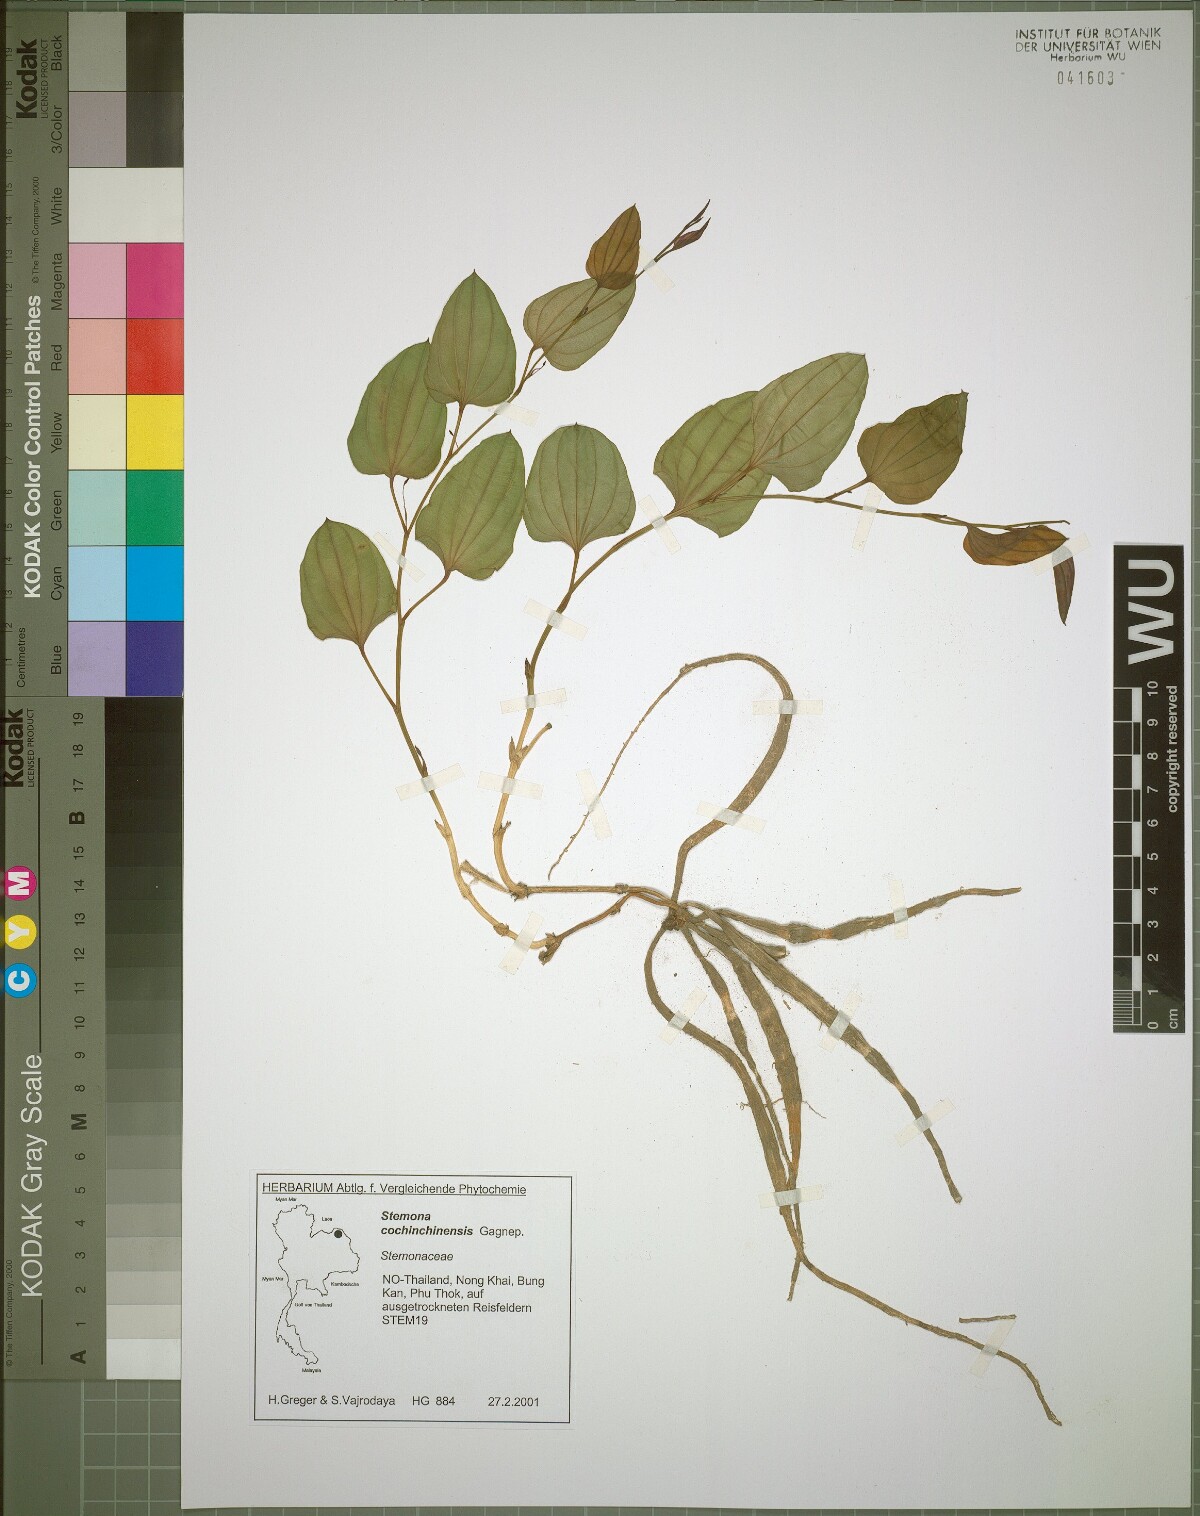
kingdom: Plantae
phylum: Tracheophyta
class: Liliopsida
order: Pandanales
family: Stemonaceae
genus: Stemona
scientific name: Stemona cochinchinensis
